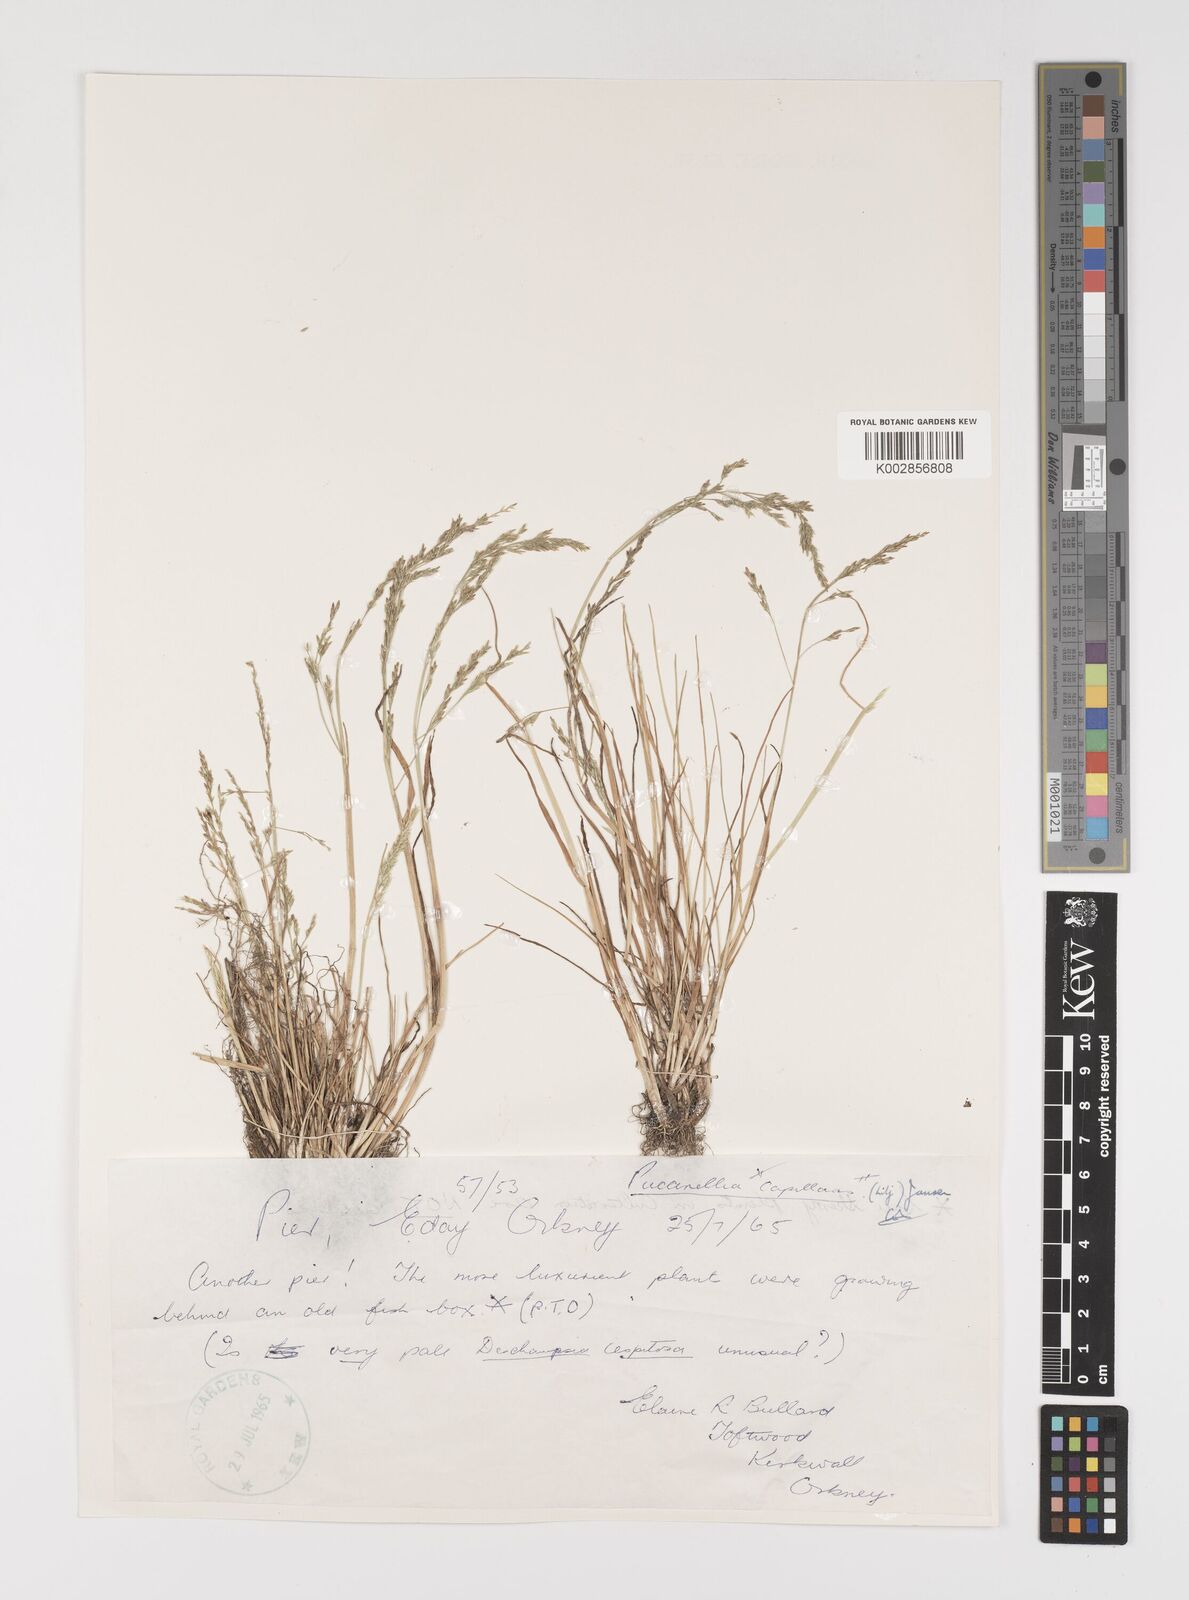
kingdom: Plantae
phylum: Tracheophyta
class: Liliopsida
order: Poales
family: Poaceae
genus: Puccinellia
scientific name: Puccinellia distans
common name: Weeping alkaligrass
